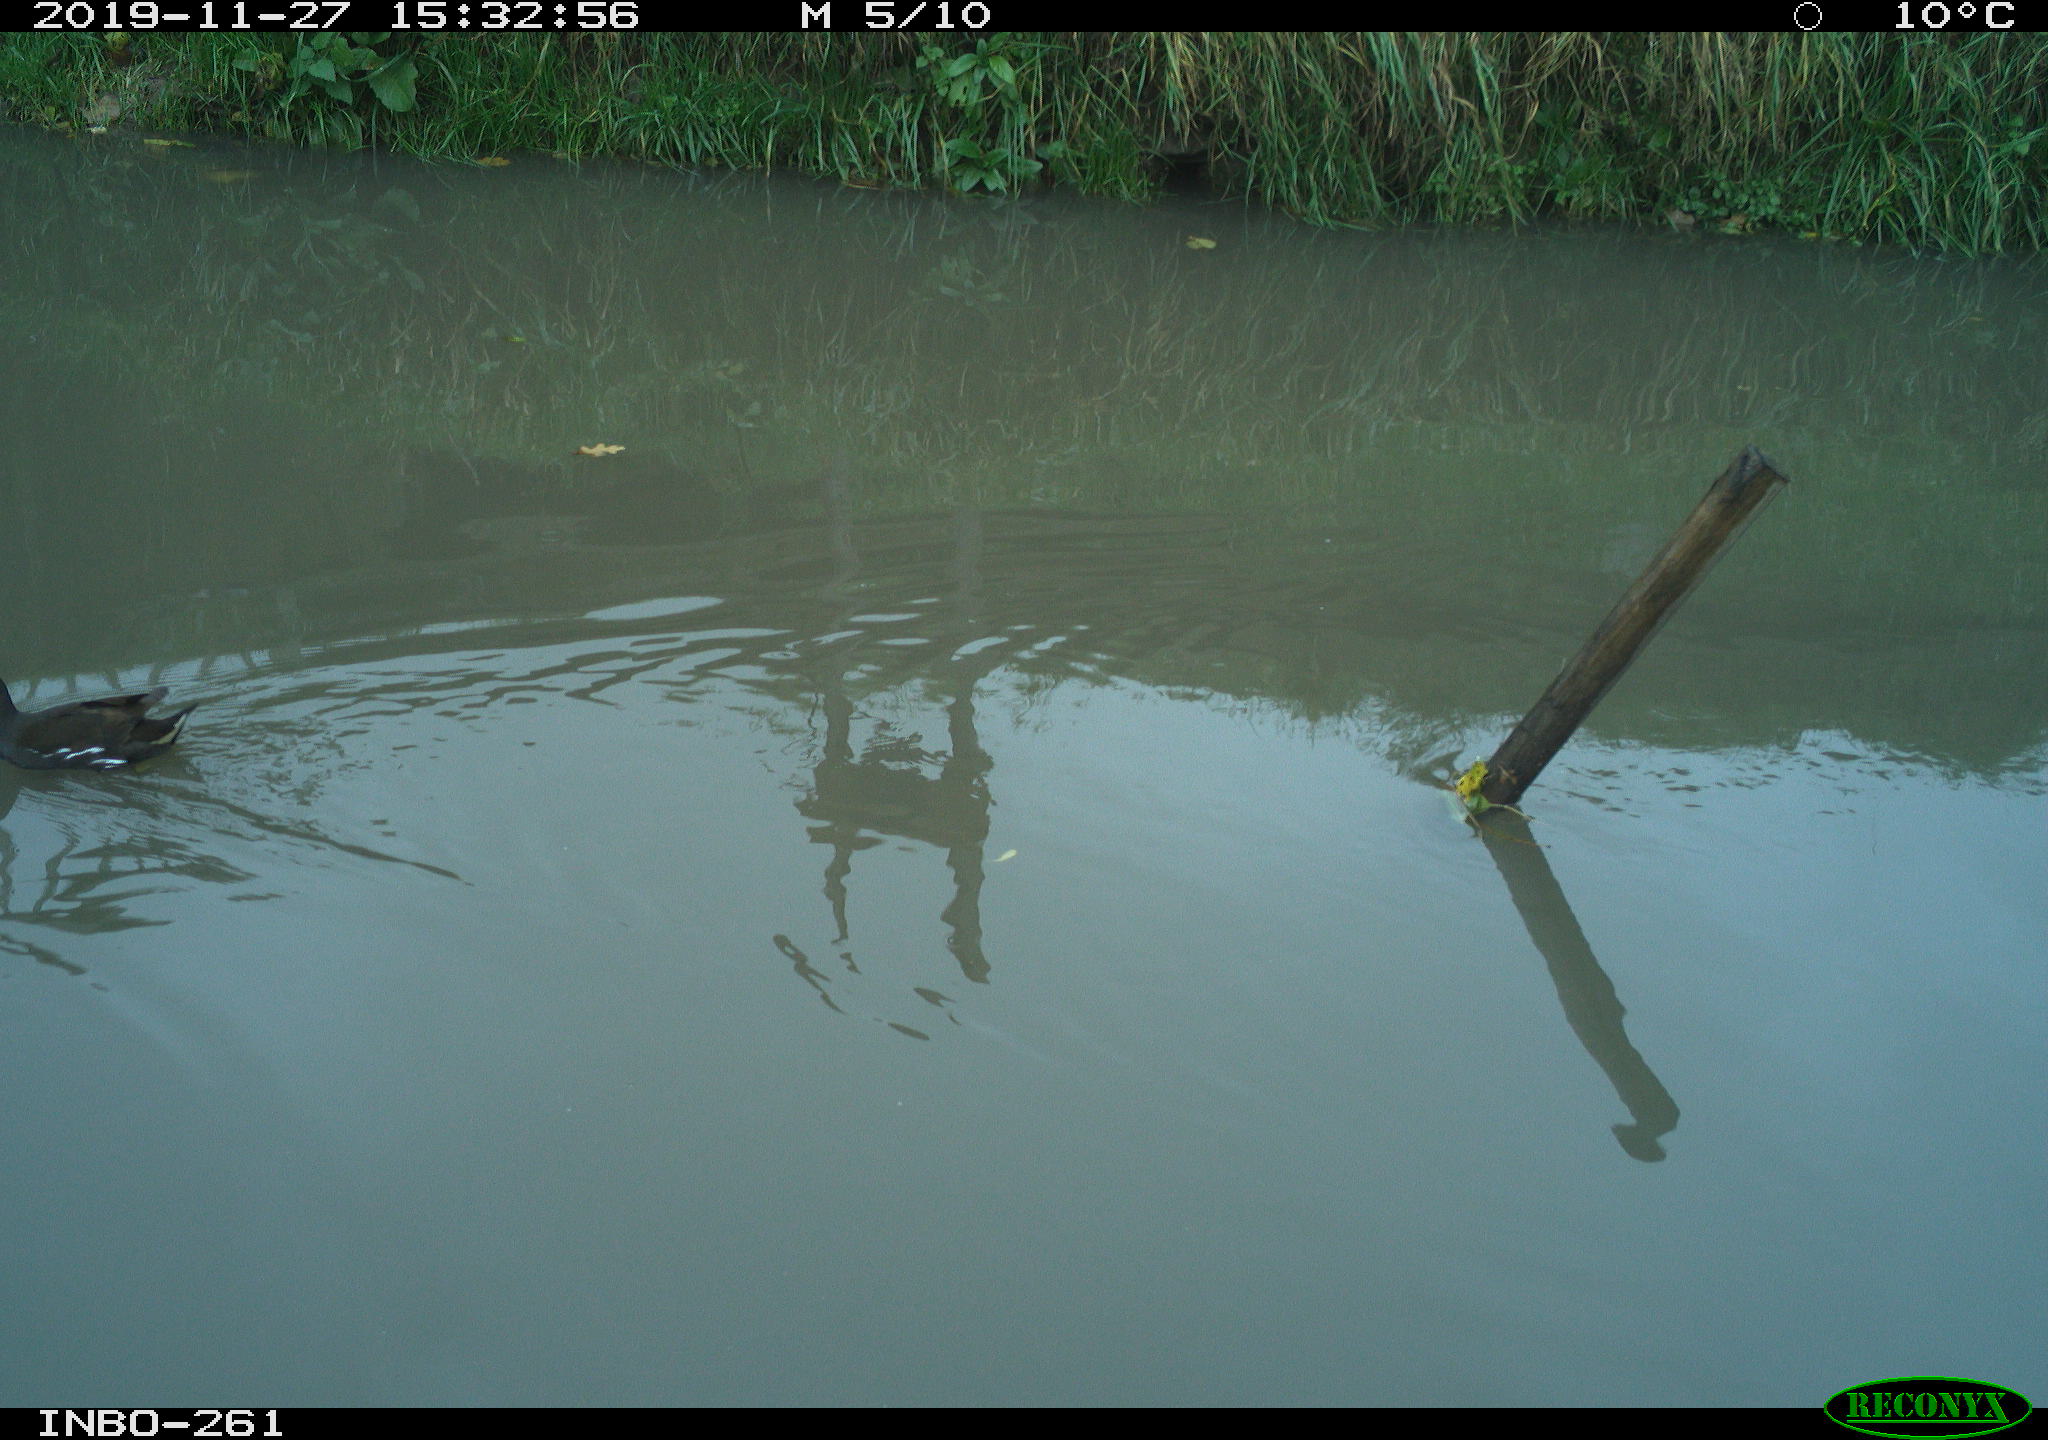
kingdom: Animalia
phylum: Chordata
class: Aves
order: Gruiformes
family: Rallidae
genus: Gallinula
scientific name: Gallinula chloropus
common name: Common moorhen
